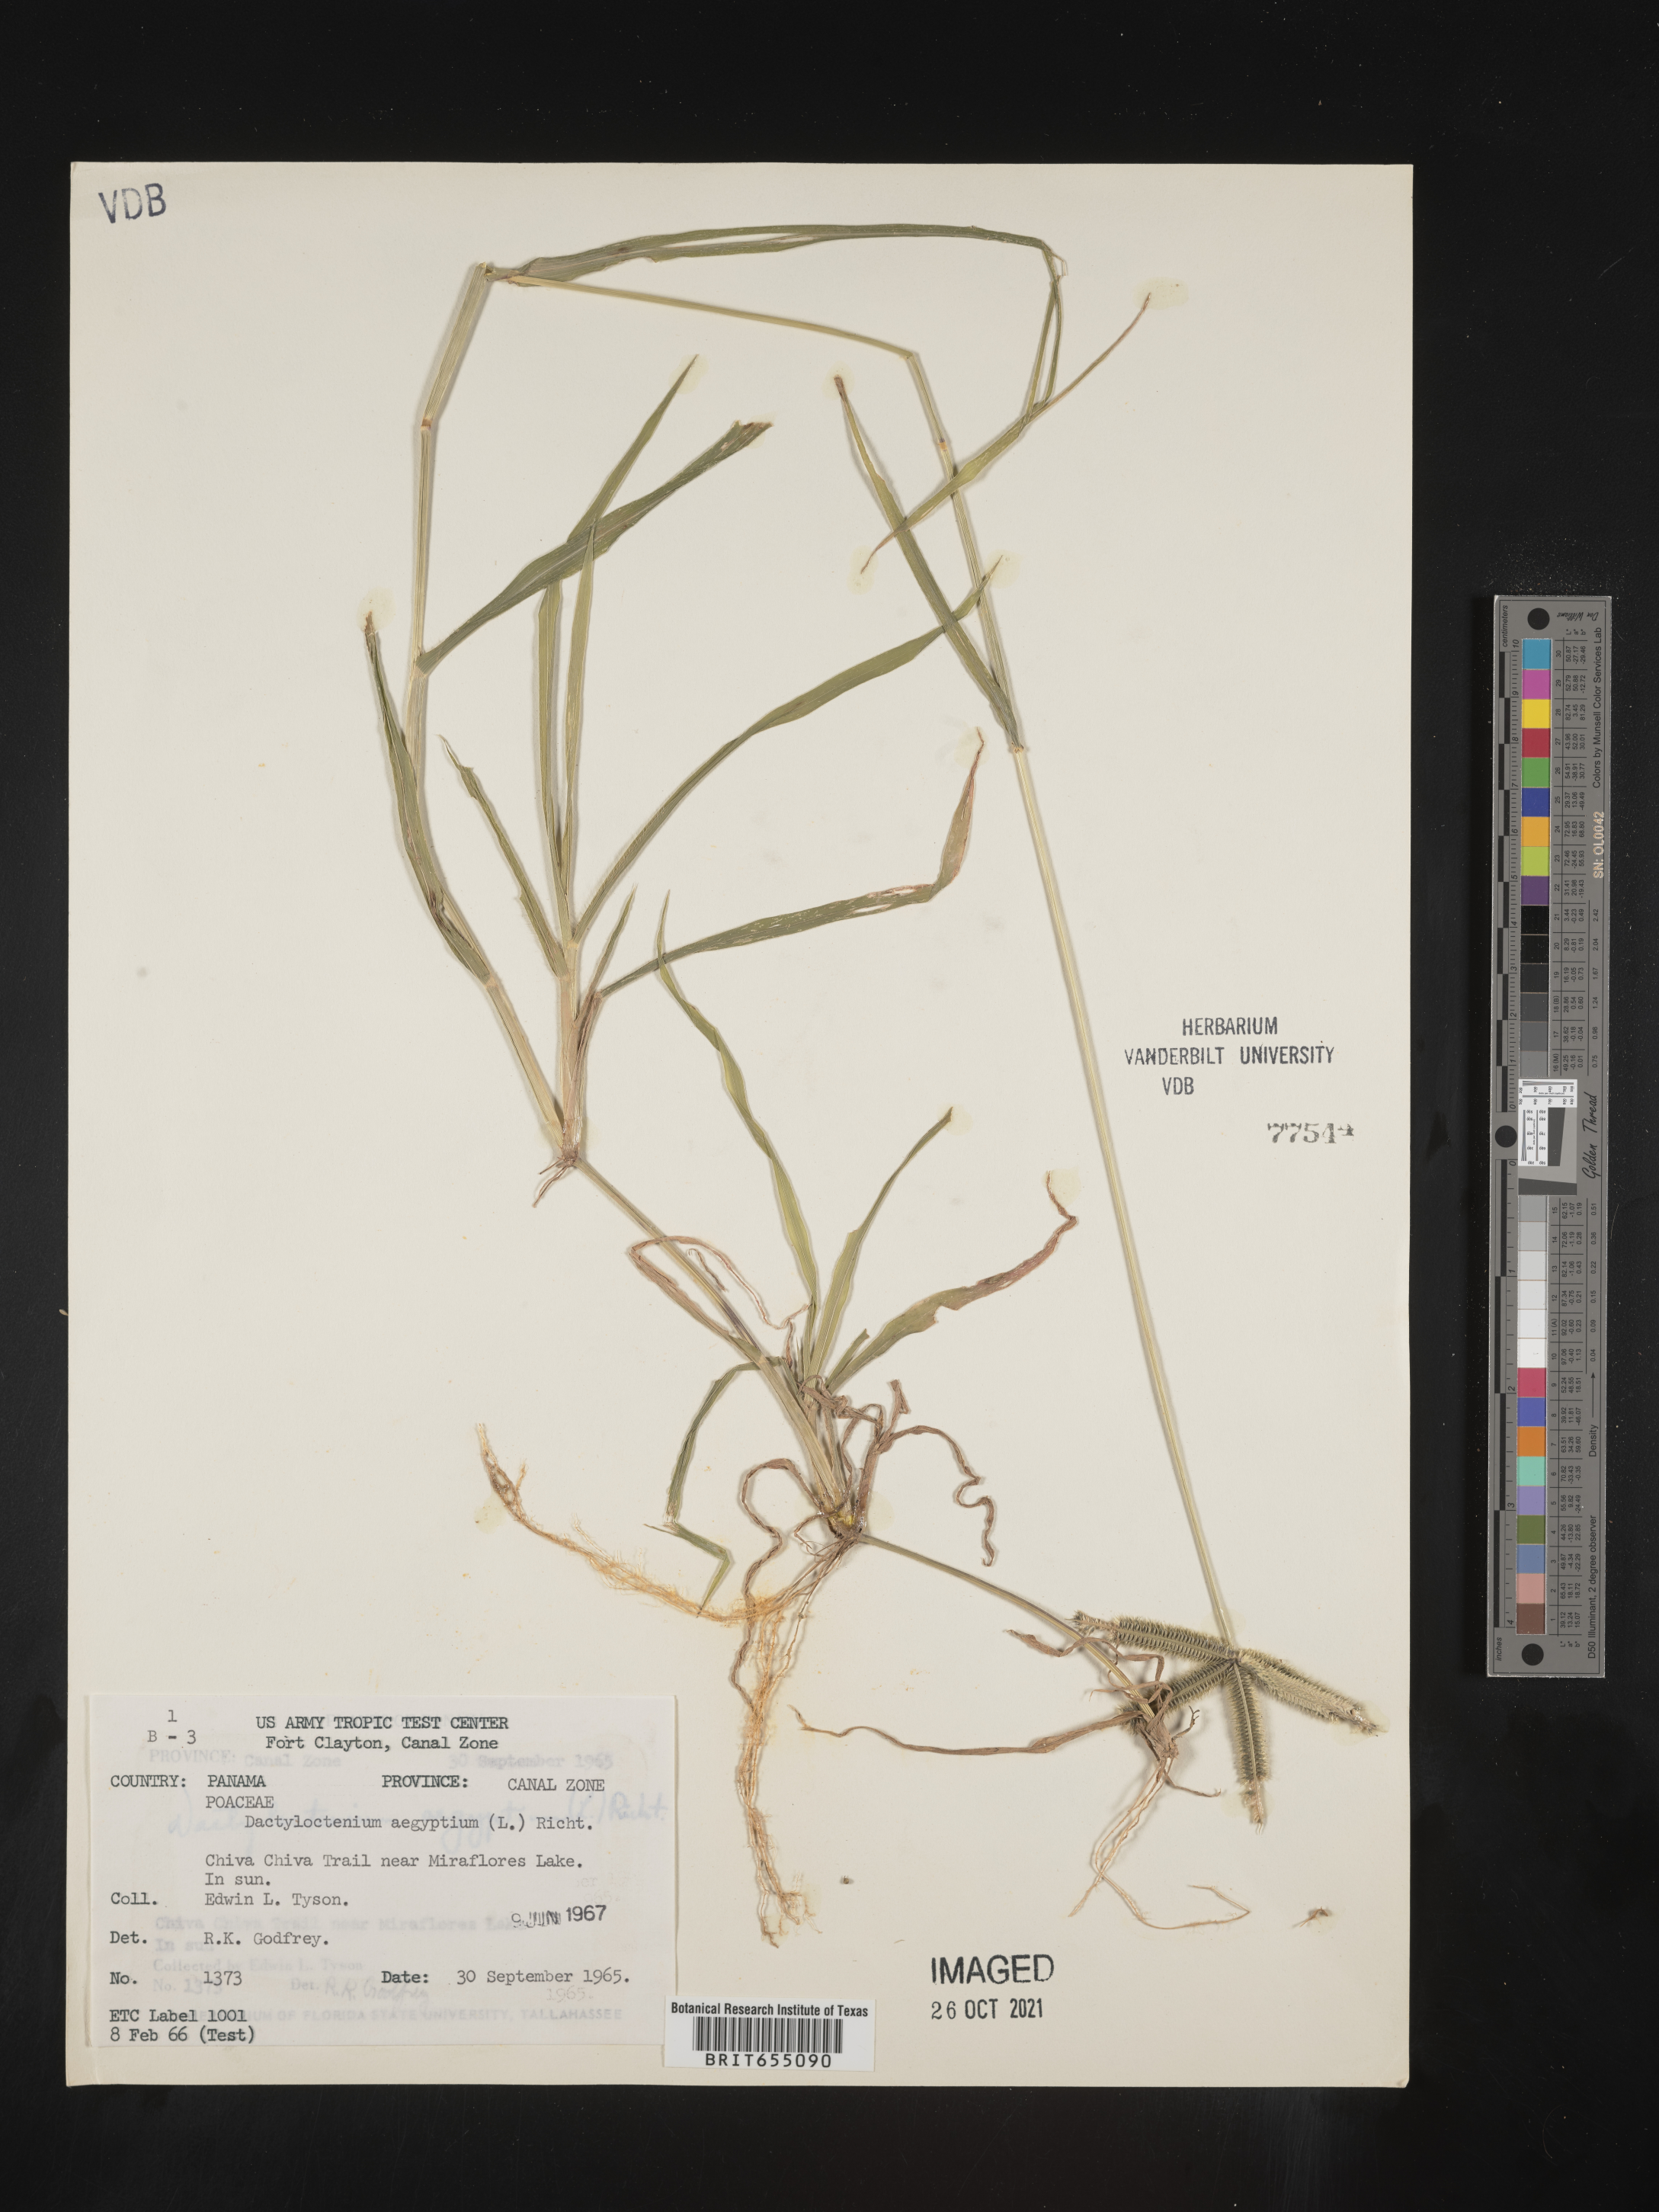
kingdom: Plantae
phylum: Tracheophyta
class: Liliopsida
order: Poales
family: Poaceae
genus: Dactyloctenium
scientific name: Dactyloctenium
